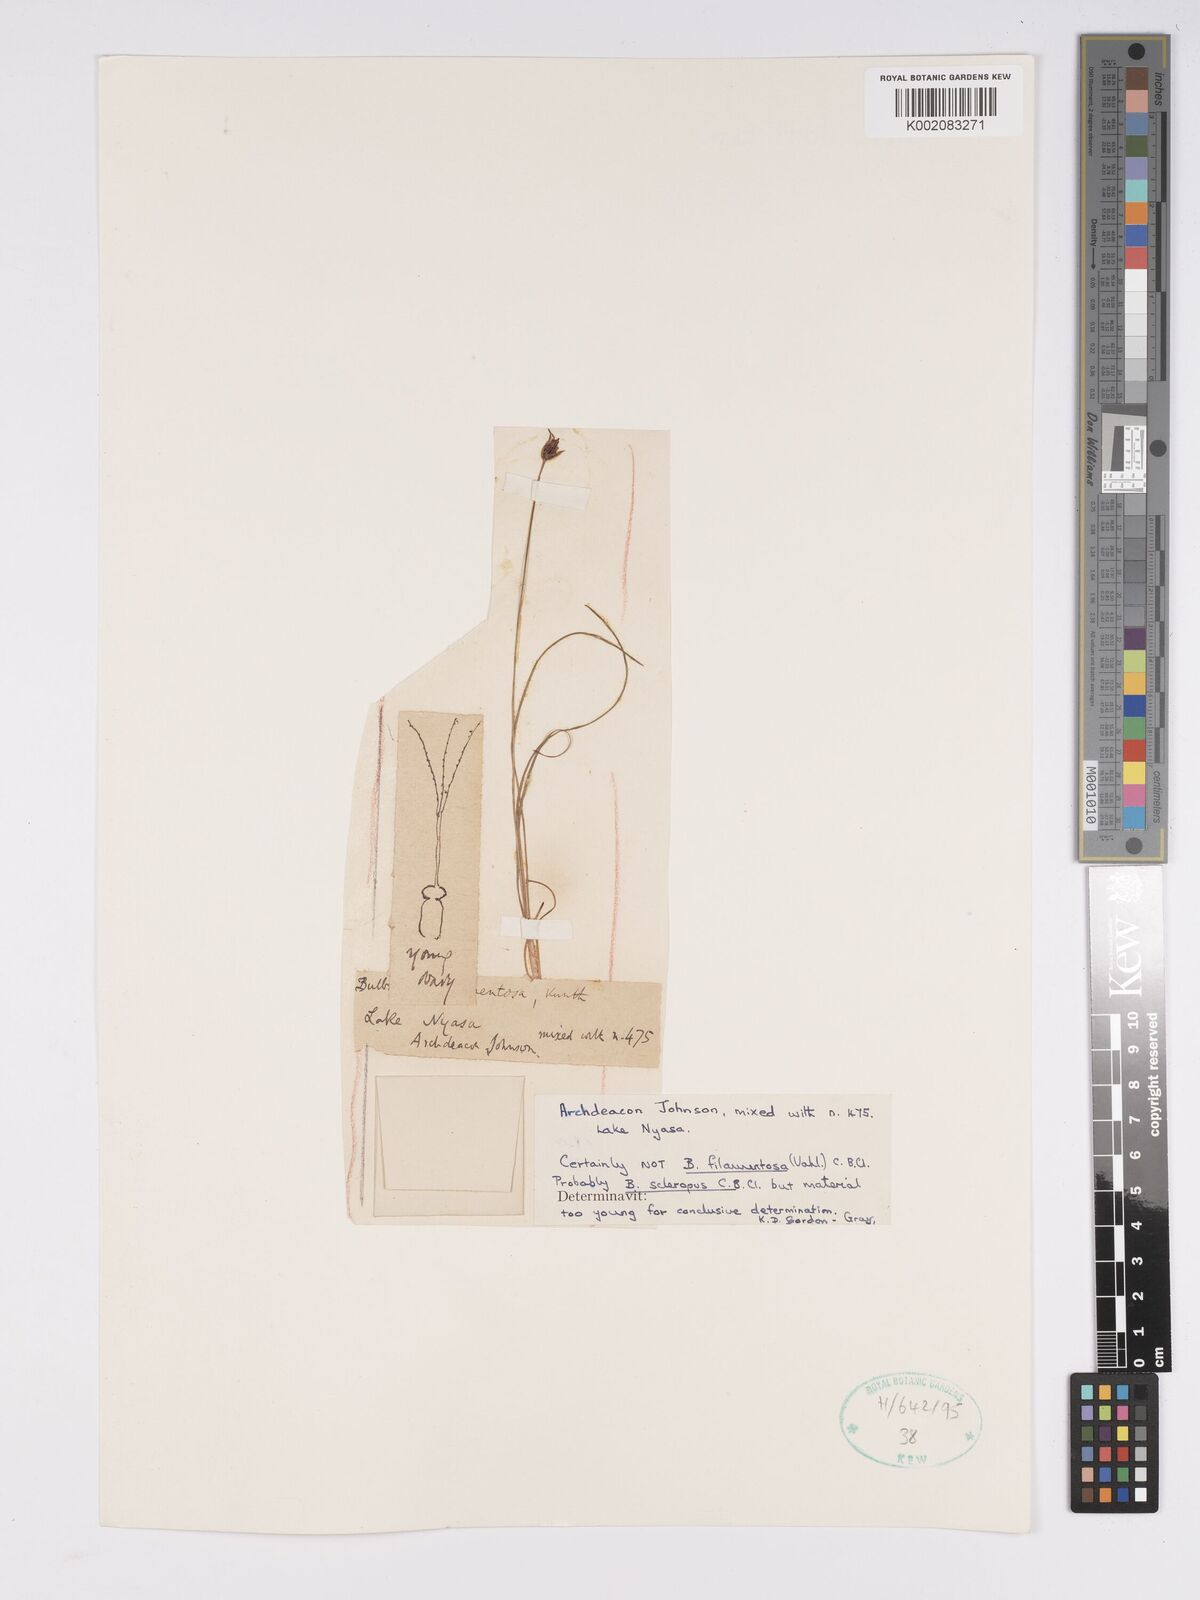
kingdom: Plantae
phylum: Tracheophyta
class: Liliopsida
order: Poales
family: Cyperaceae
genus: Bulbostylis
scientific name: Bulbostylis schoenoides
